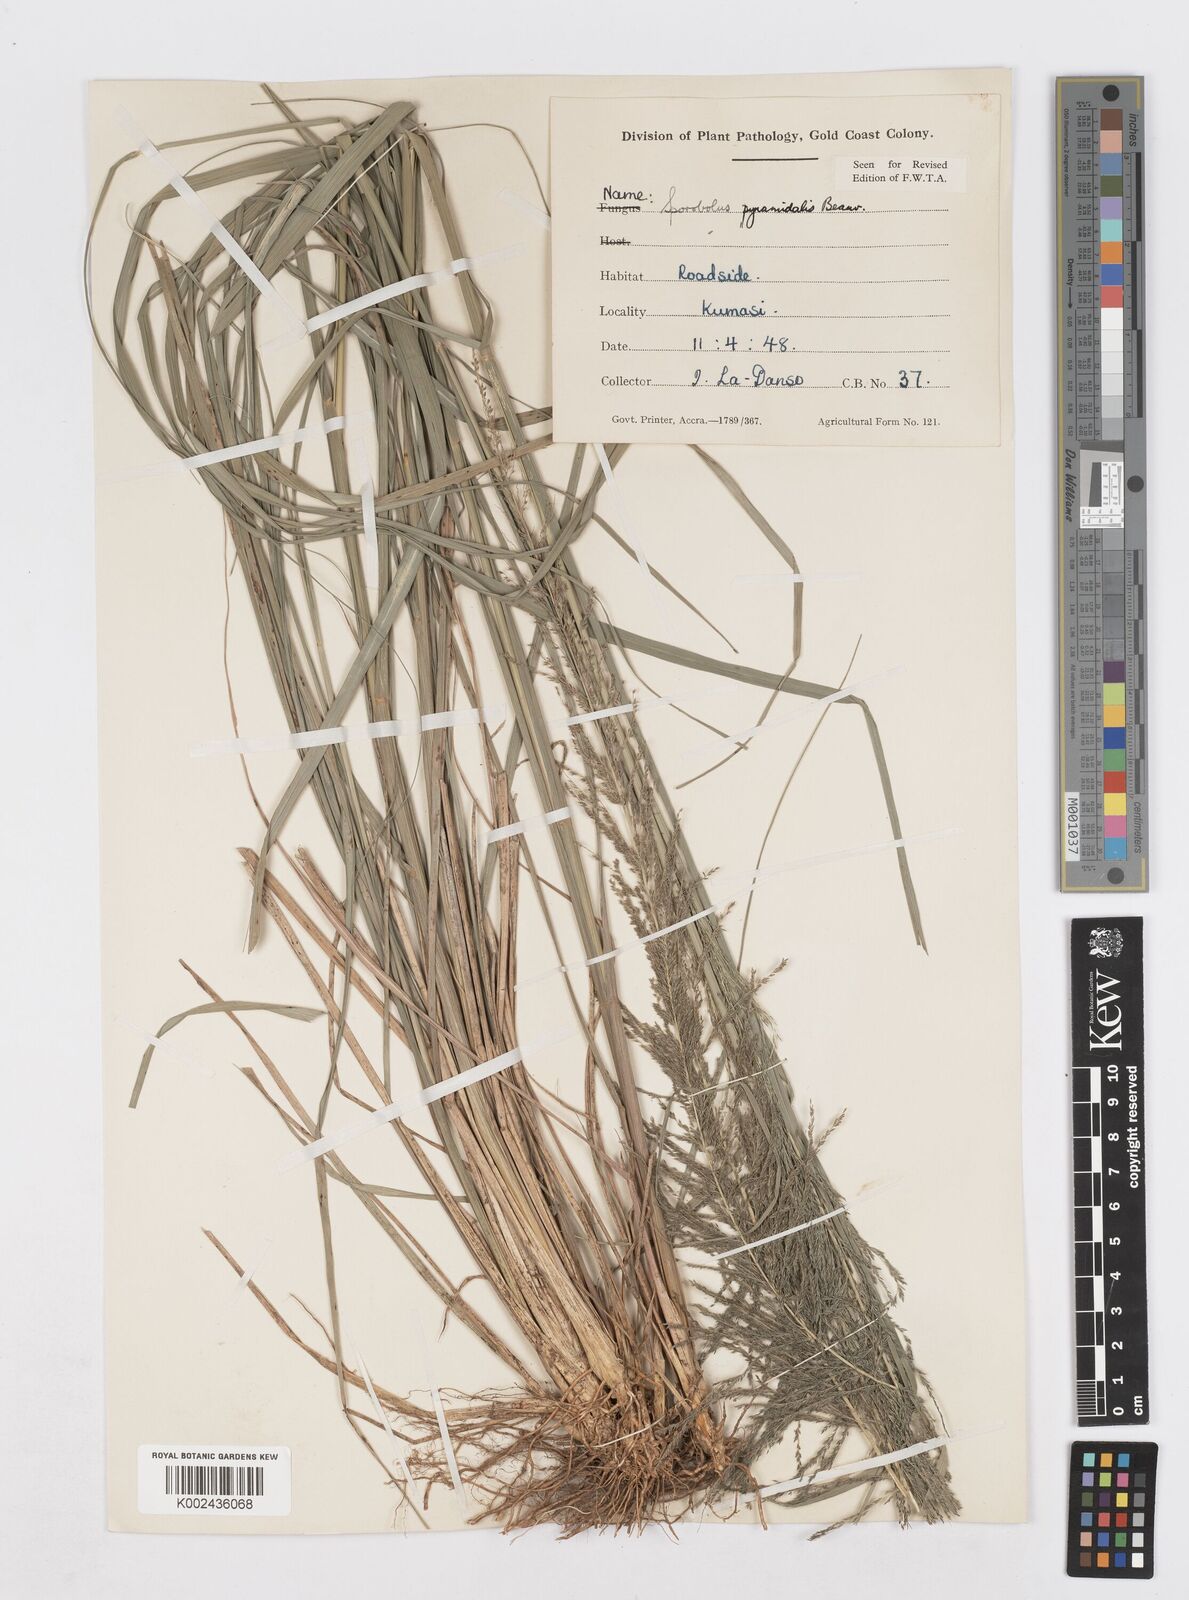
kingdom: Plantae
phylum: Tracheophyta
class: Liliopsida
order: Poales
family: Poaceae
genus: Sporobolus
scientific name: Sporobolus pyramidalis
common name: West indian dropseed
